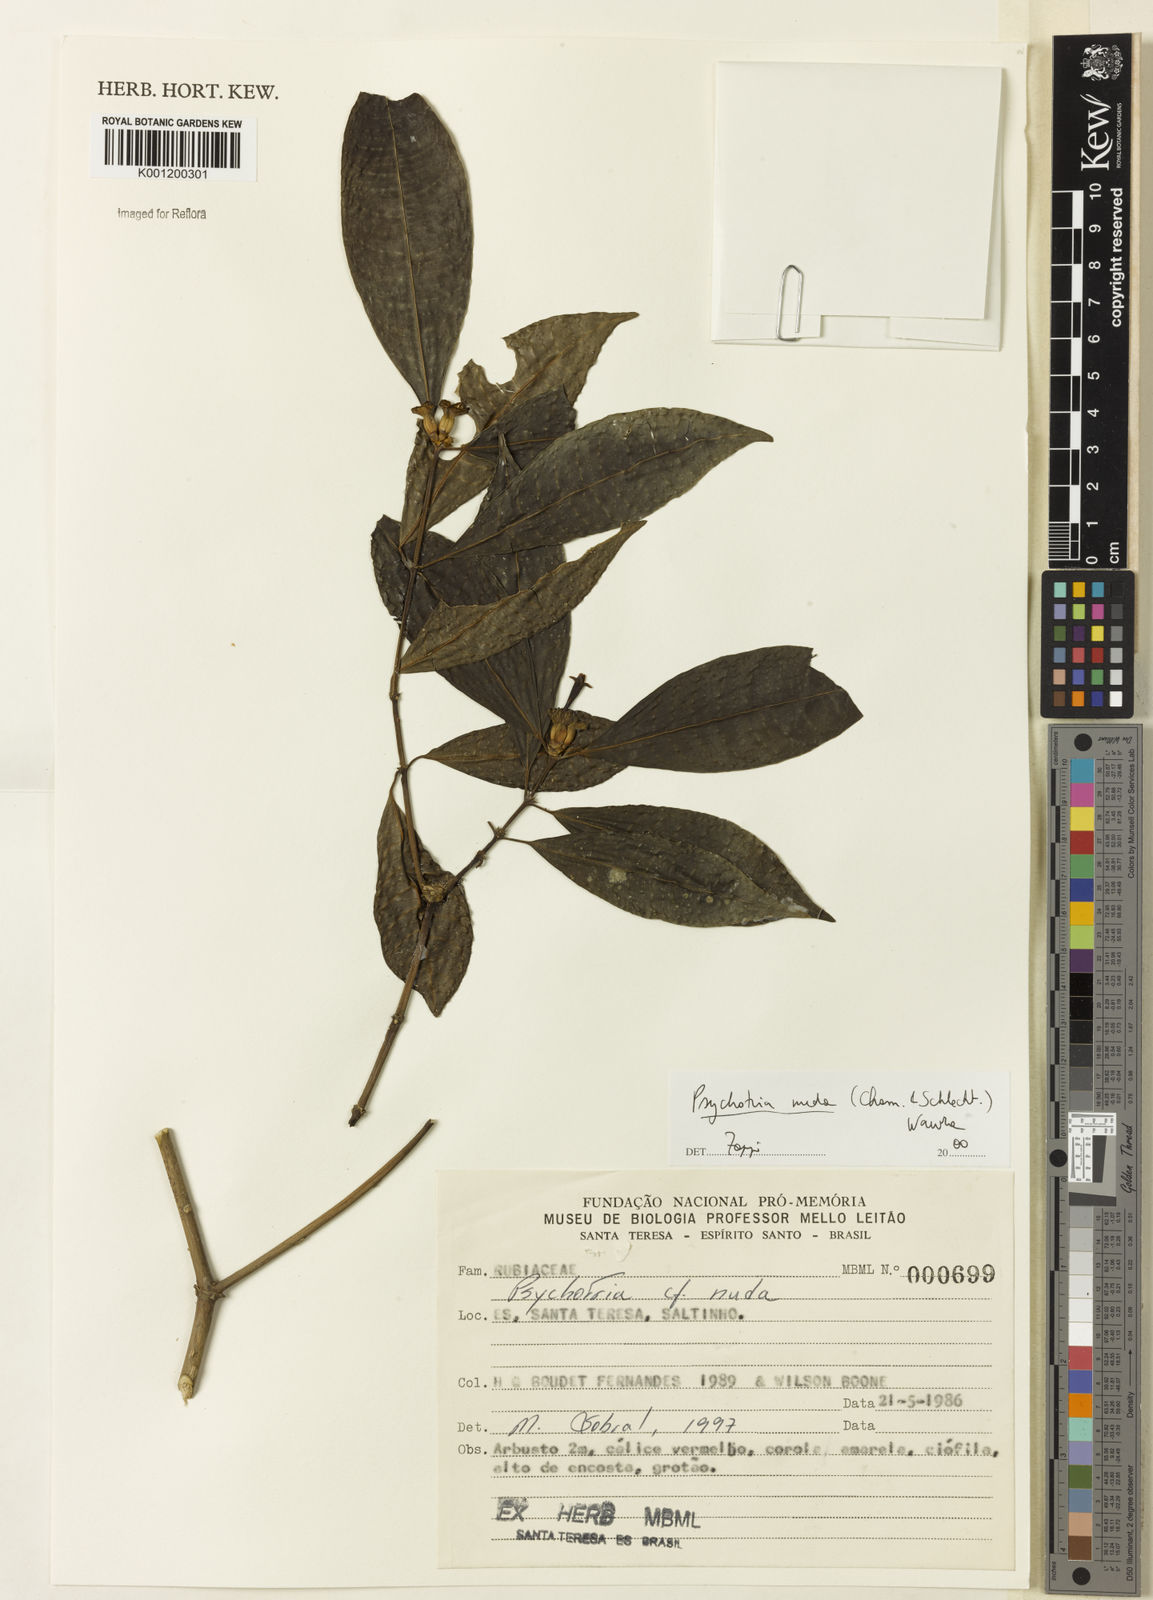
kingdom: Plantae
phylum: Tracheophyta
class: Magnoliopsida
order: Gentianales
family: Rubiaceae
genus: Psychotria
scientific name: Psychotria nuda
